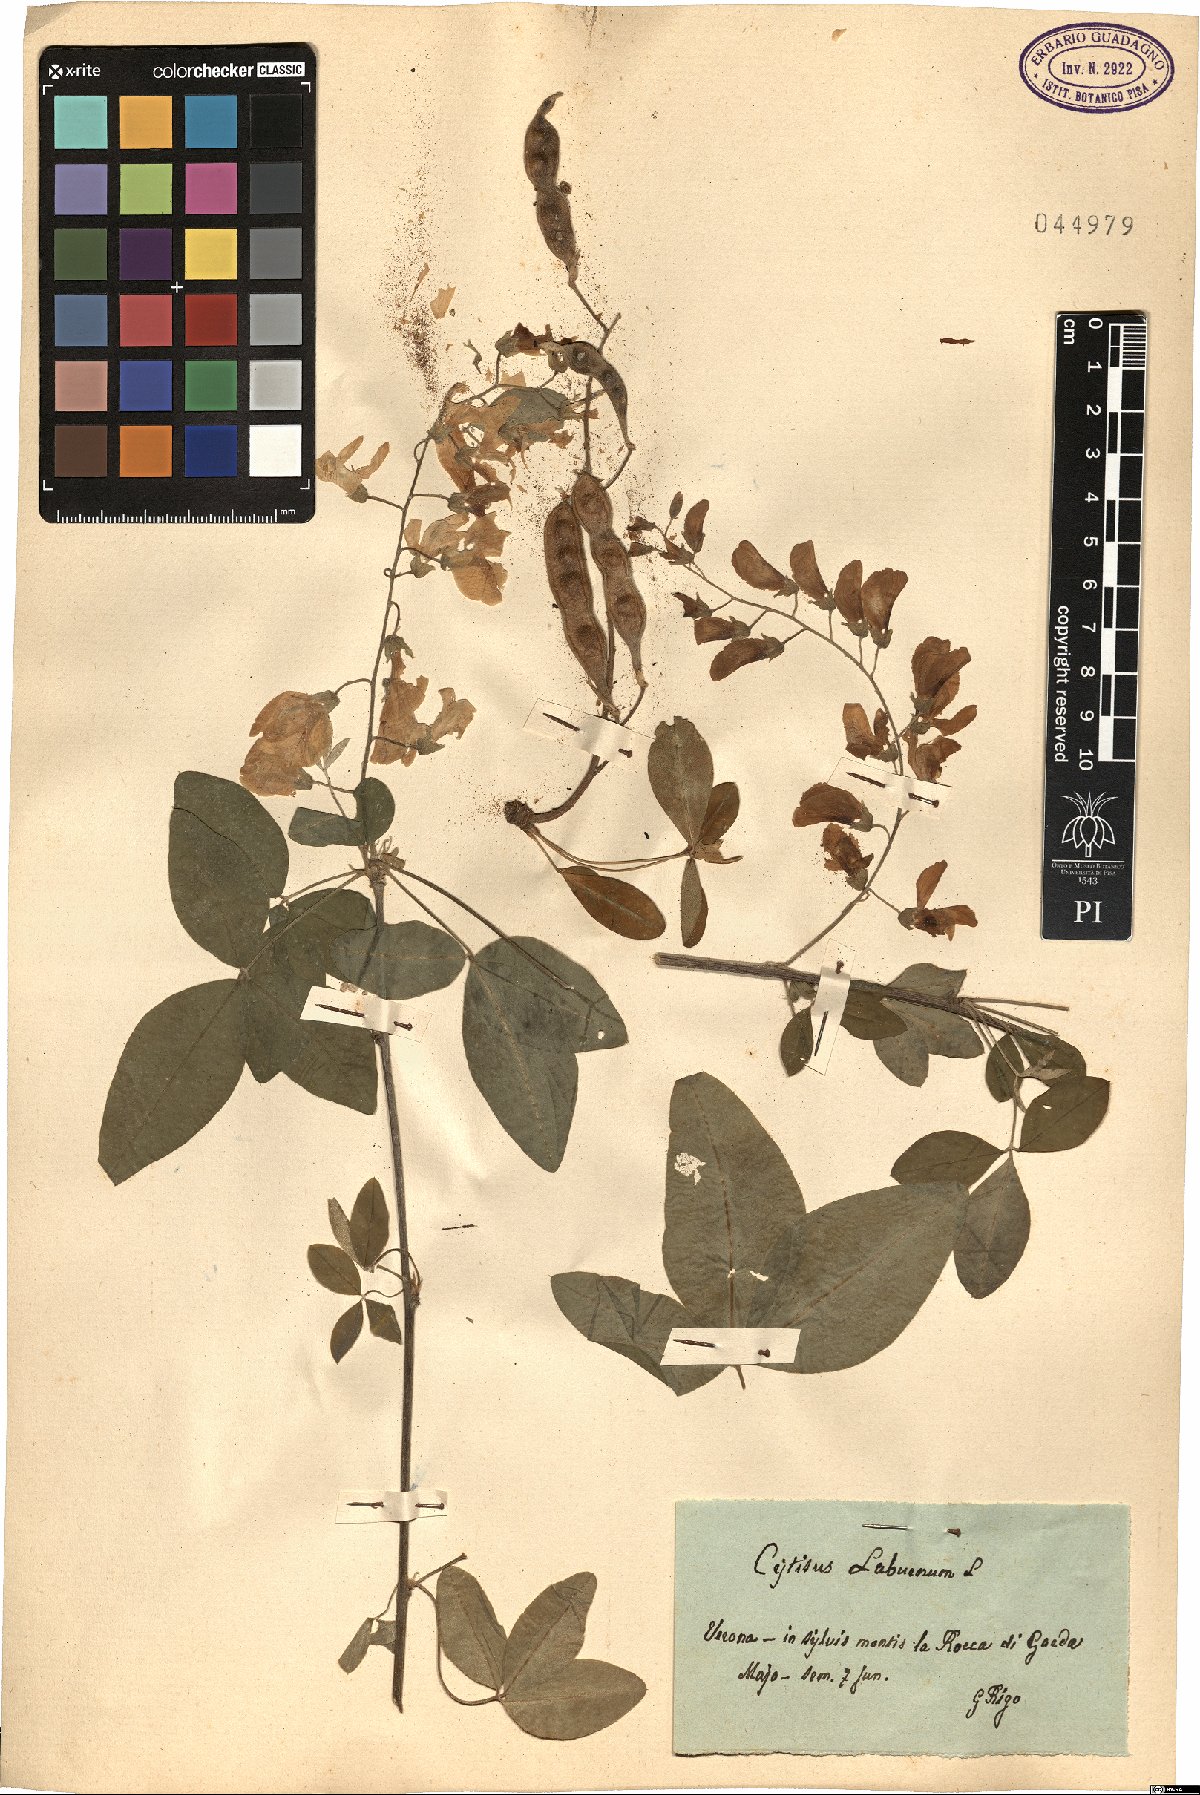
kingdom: Plantae
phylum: Tracheophyta
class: Magnoliopsida
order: Fabales
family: Fabaceae
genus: Laburnum
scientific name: Laburnum anagyroides
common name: Laburnum
